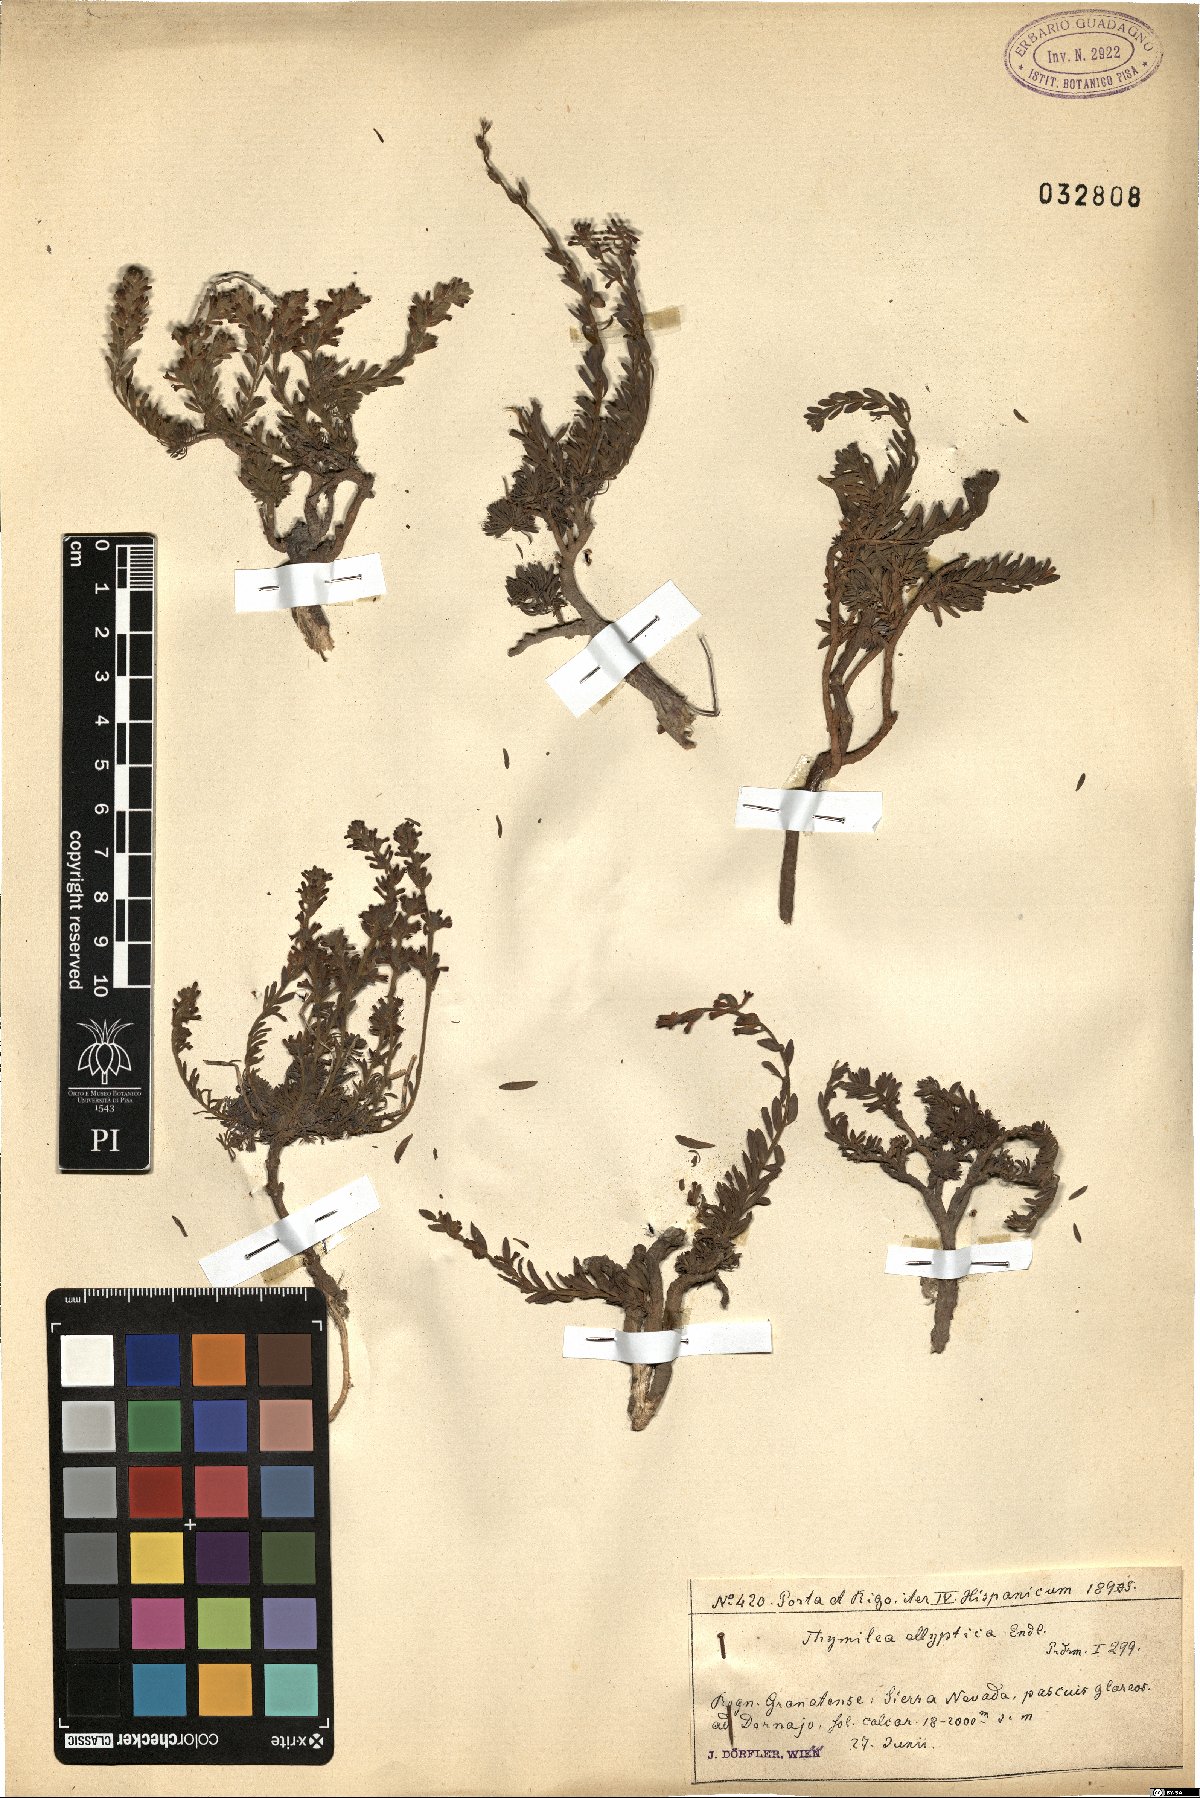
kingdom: Plantae
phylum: Tracheophyta
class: Magnoliopsida
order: Malvales
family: Thymelaeaceae
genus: Thymelaea
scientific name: Thymelaea pubescens
